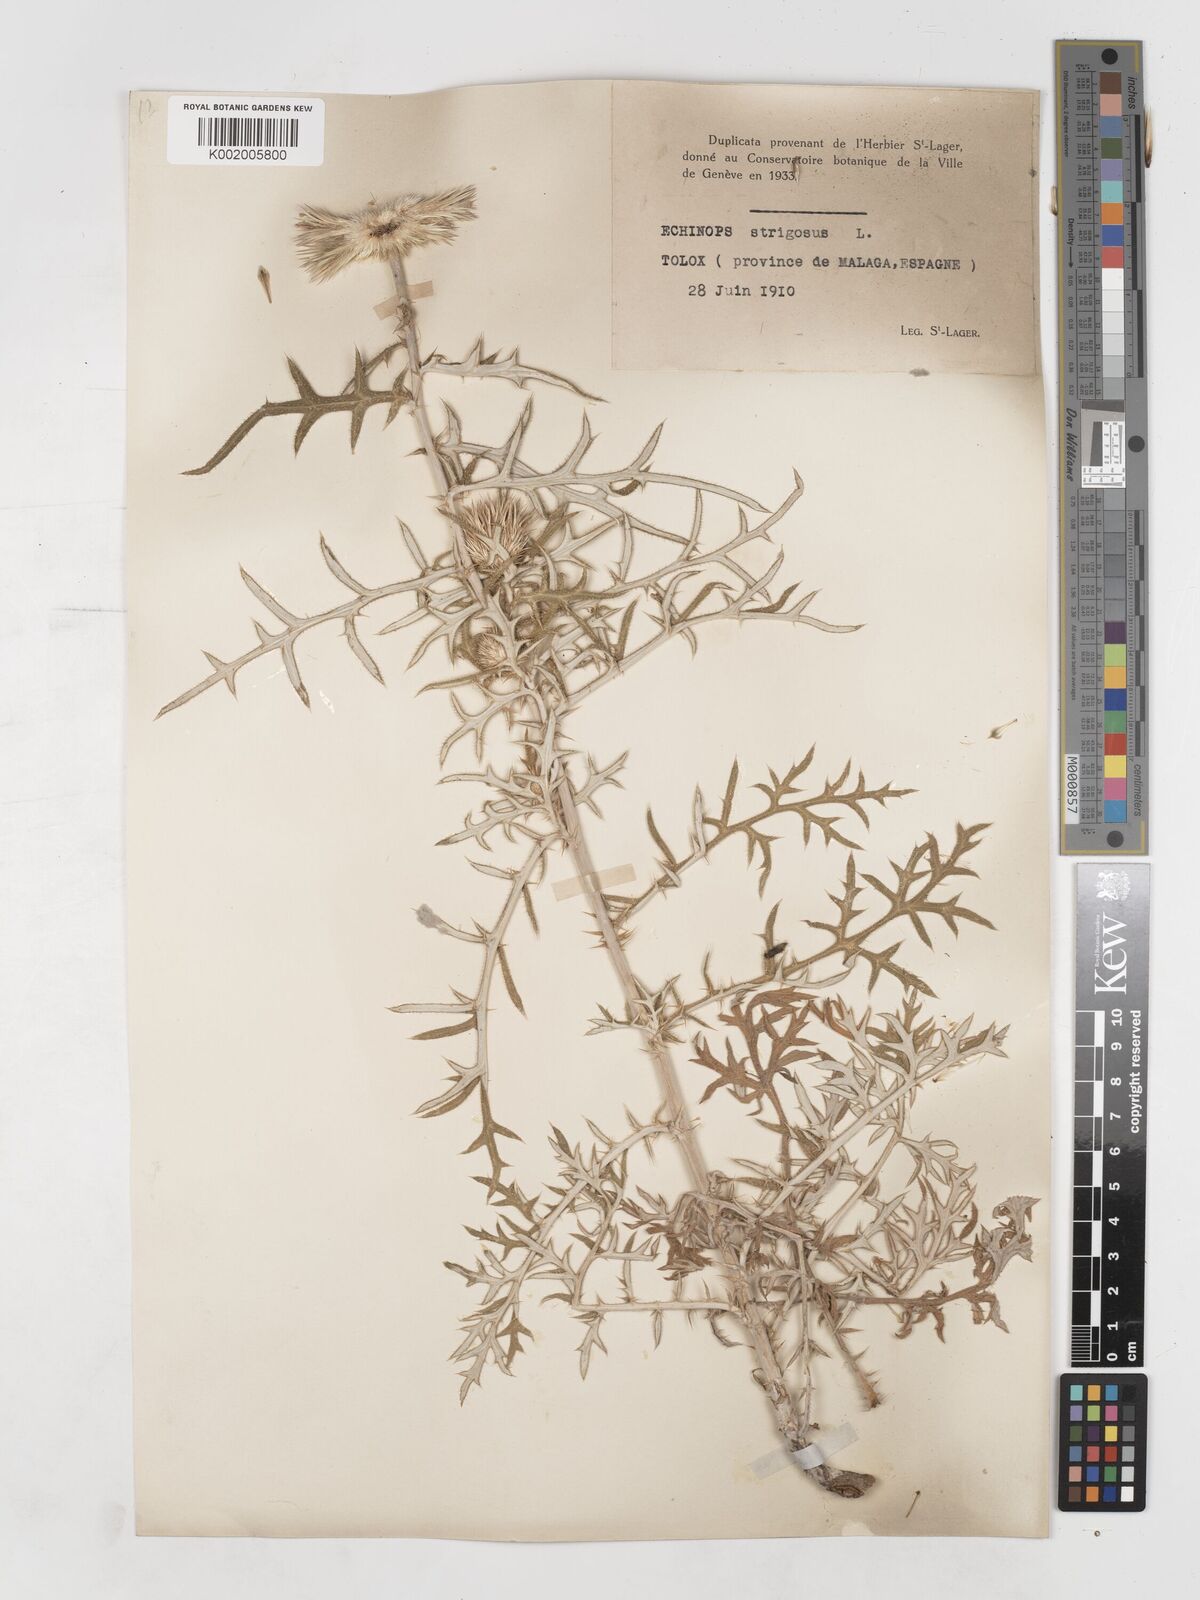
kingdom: Plantae
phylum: Tracheophyta
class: Magnoliopsida
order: Asterales
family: Asteraceae
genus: Echinops
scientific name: Echinops strigosus
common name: Rough-leaf globe thistle
